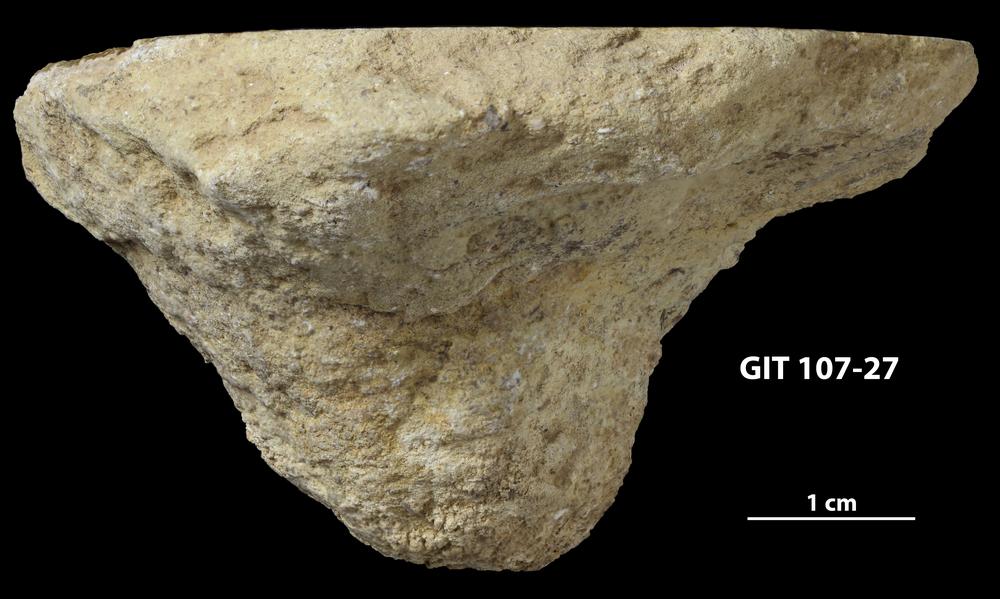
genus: Conichnus
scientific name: Conichnus
